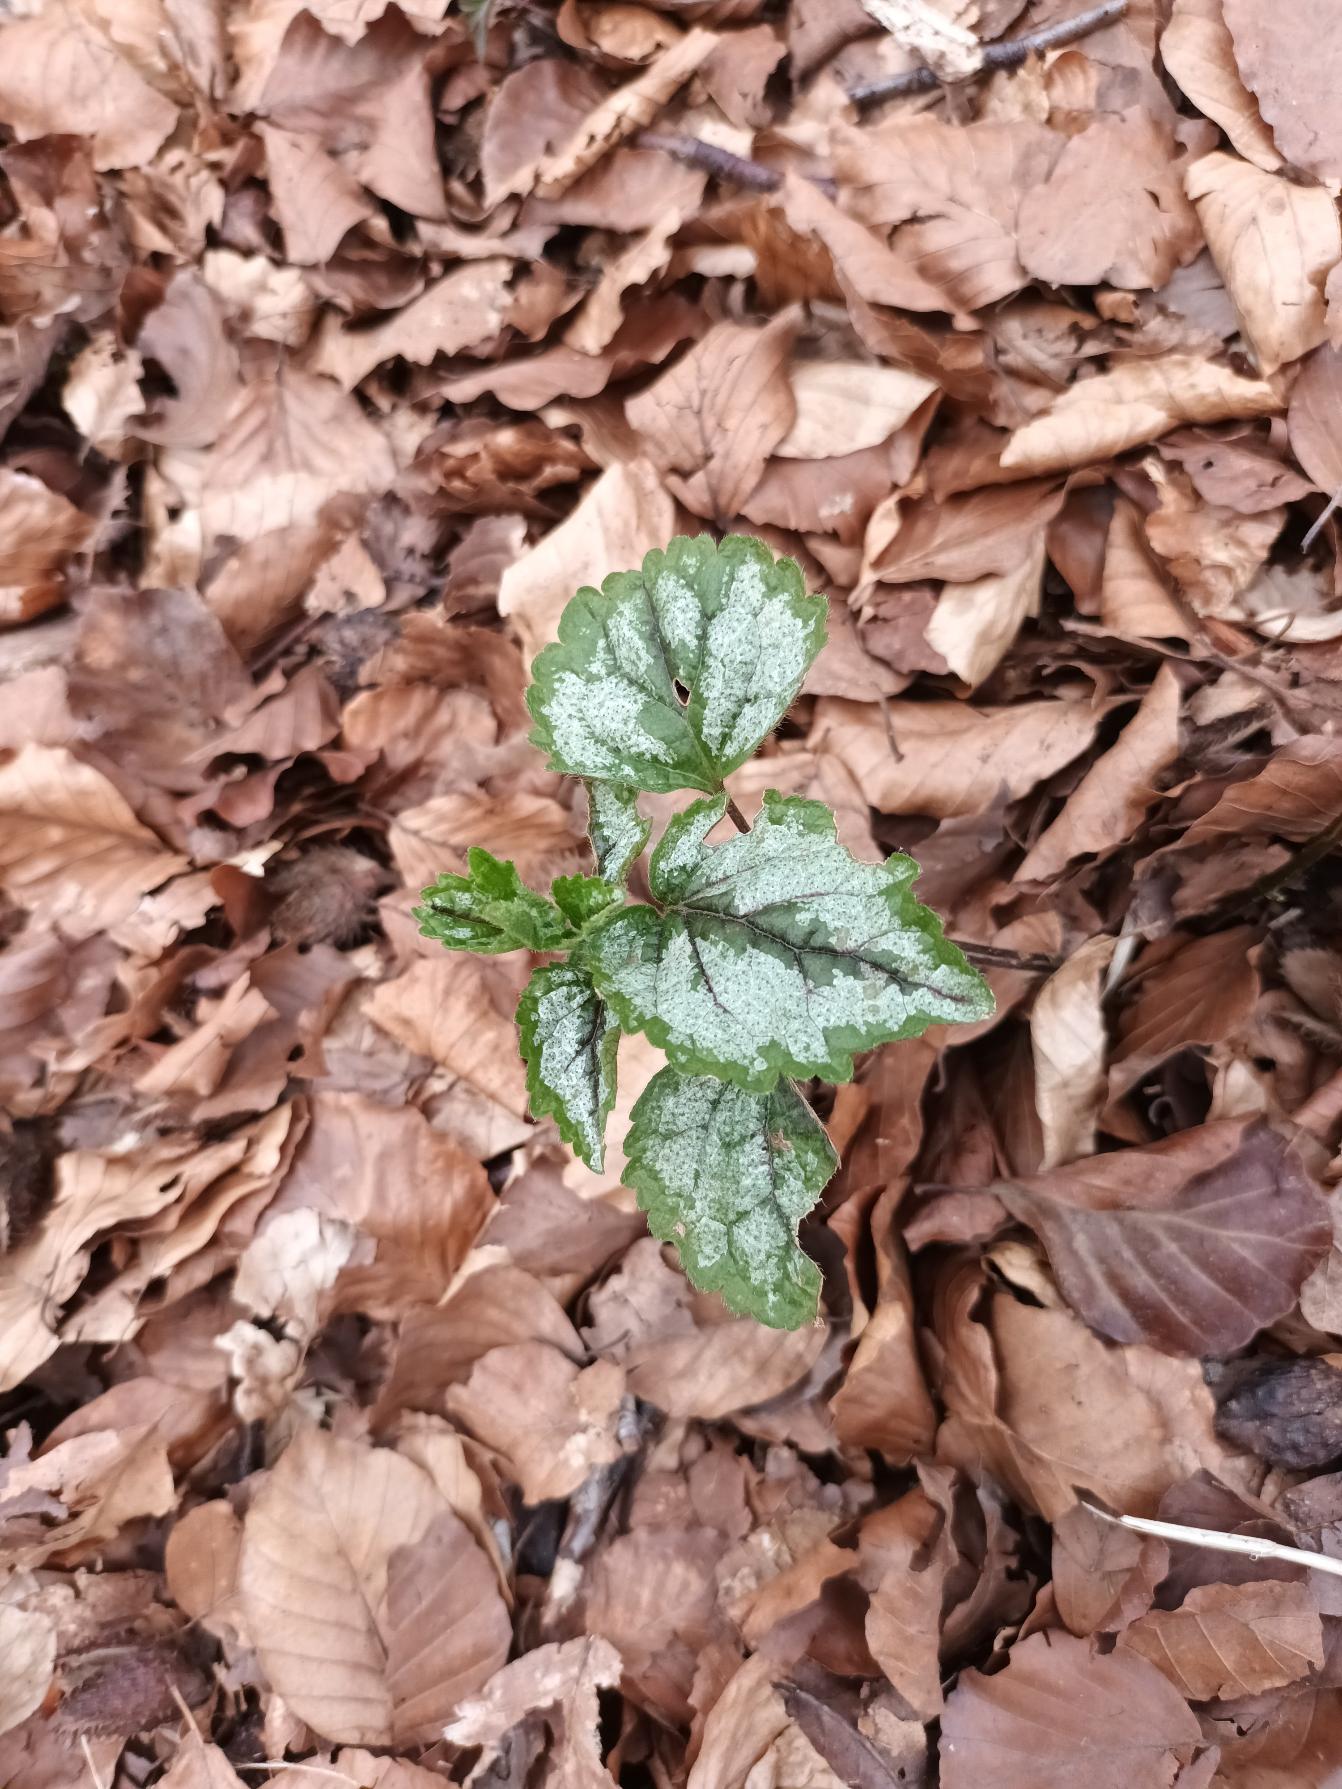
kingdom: Plantae
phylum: Tracheophyta
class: Magnoliopsida
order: Lamiales
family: Lamiaceae
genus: Lamium
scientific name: Lamium galeobdolon
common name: Have-guldnælde
